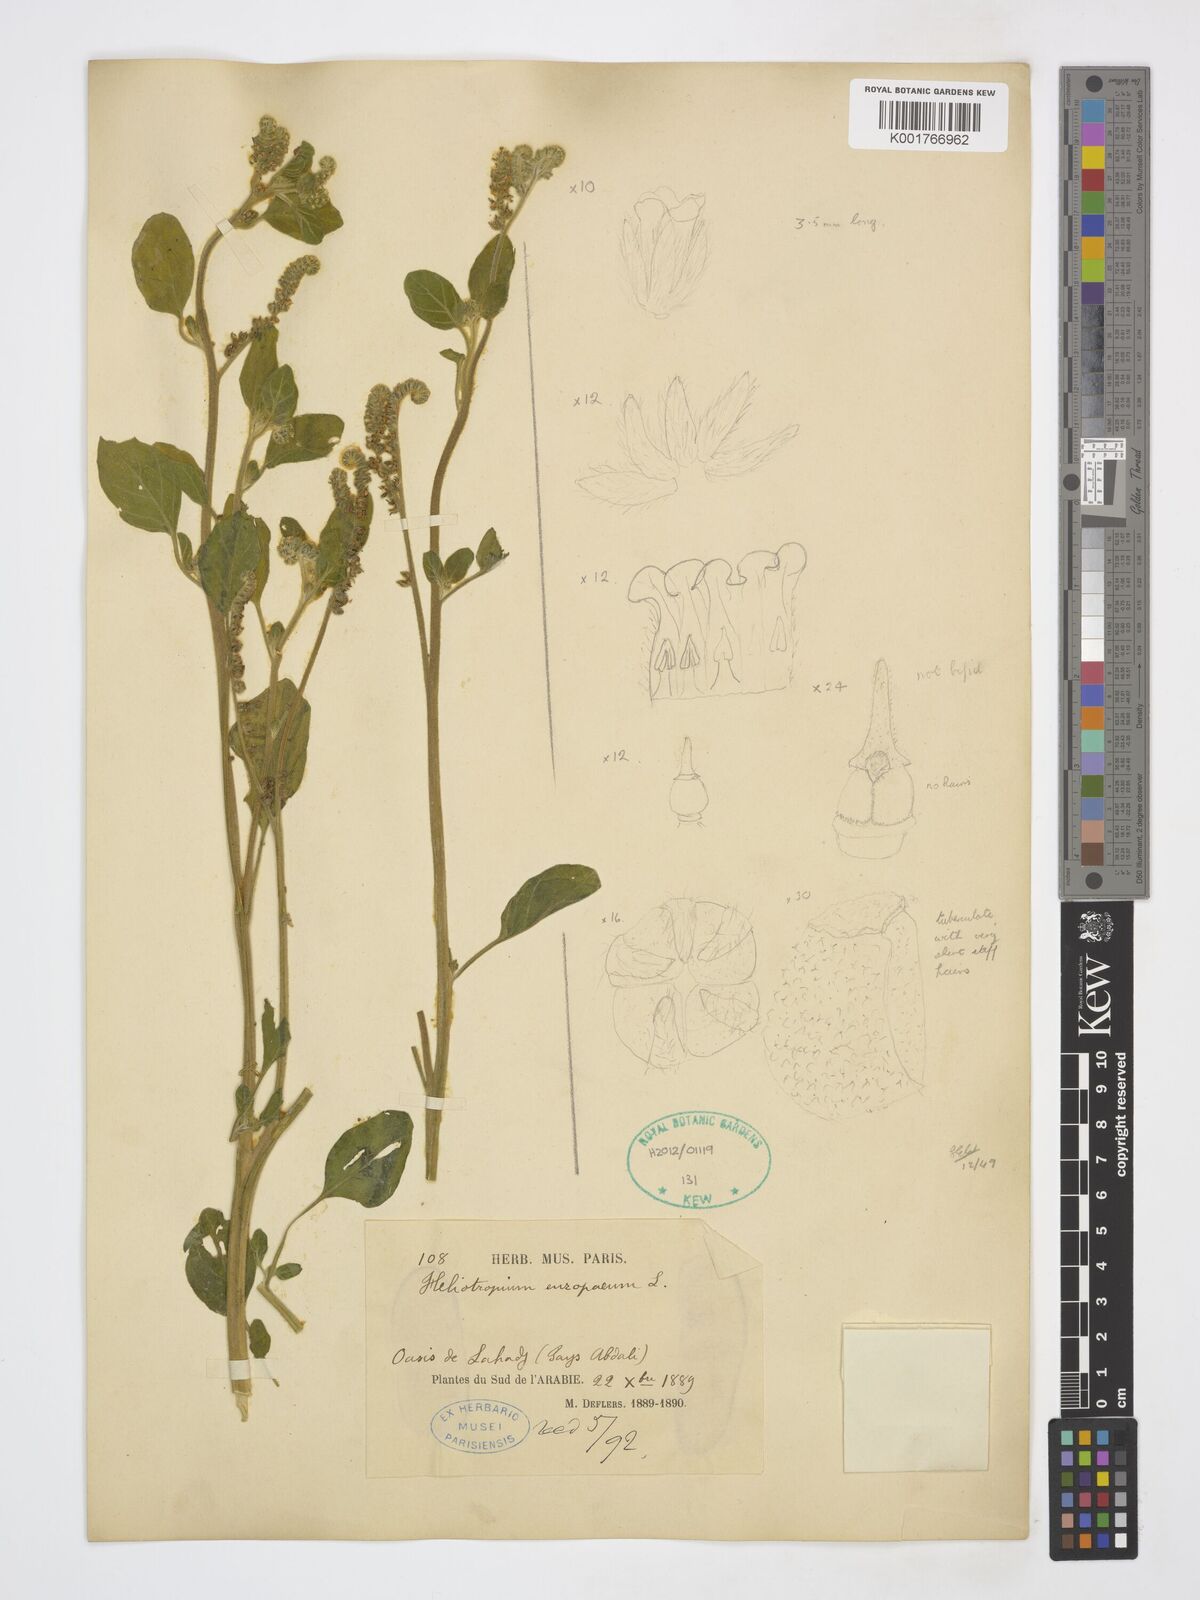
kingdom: Plantae
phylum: Tracheophyta
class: Magnoliopsida
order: Boraginales
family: Heliotropiaceae
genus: Heliotropium
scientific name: Heliotropium europaeum
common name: European heliotrope
